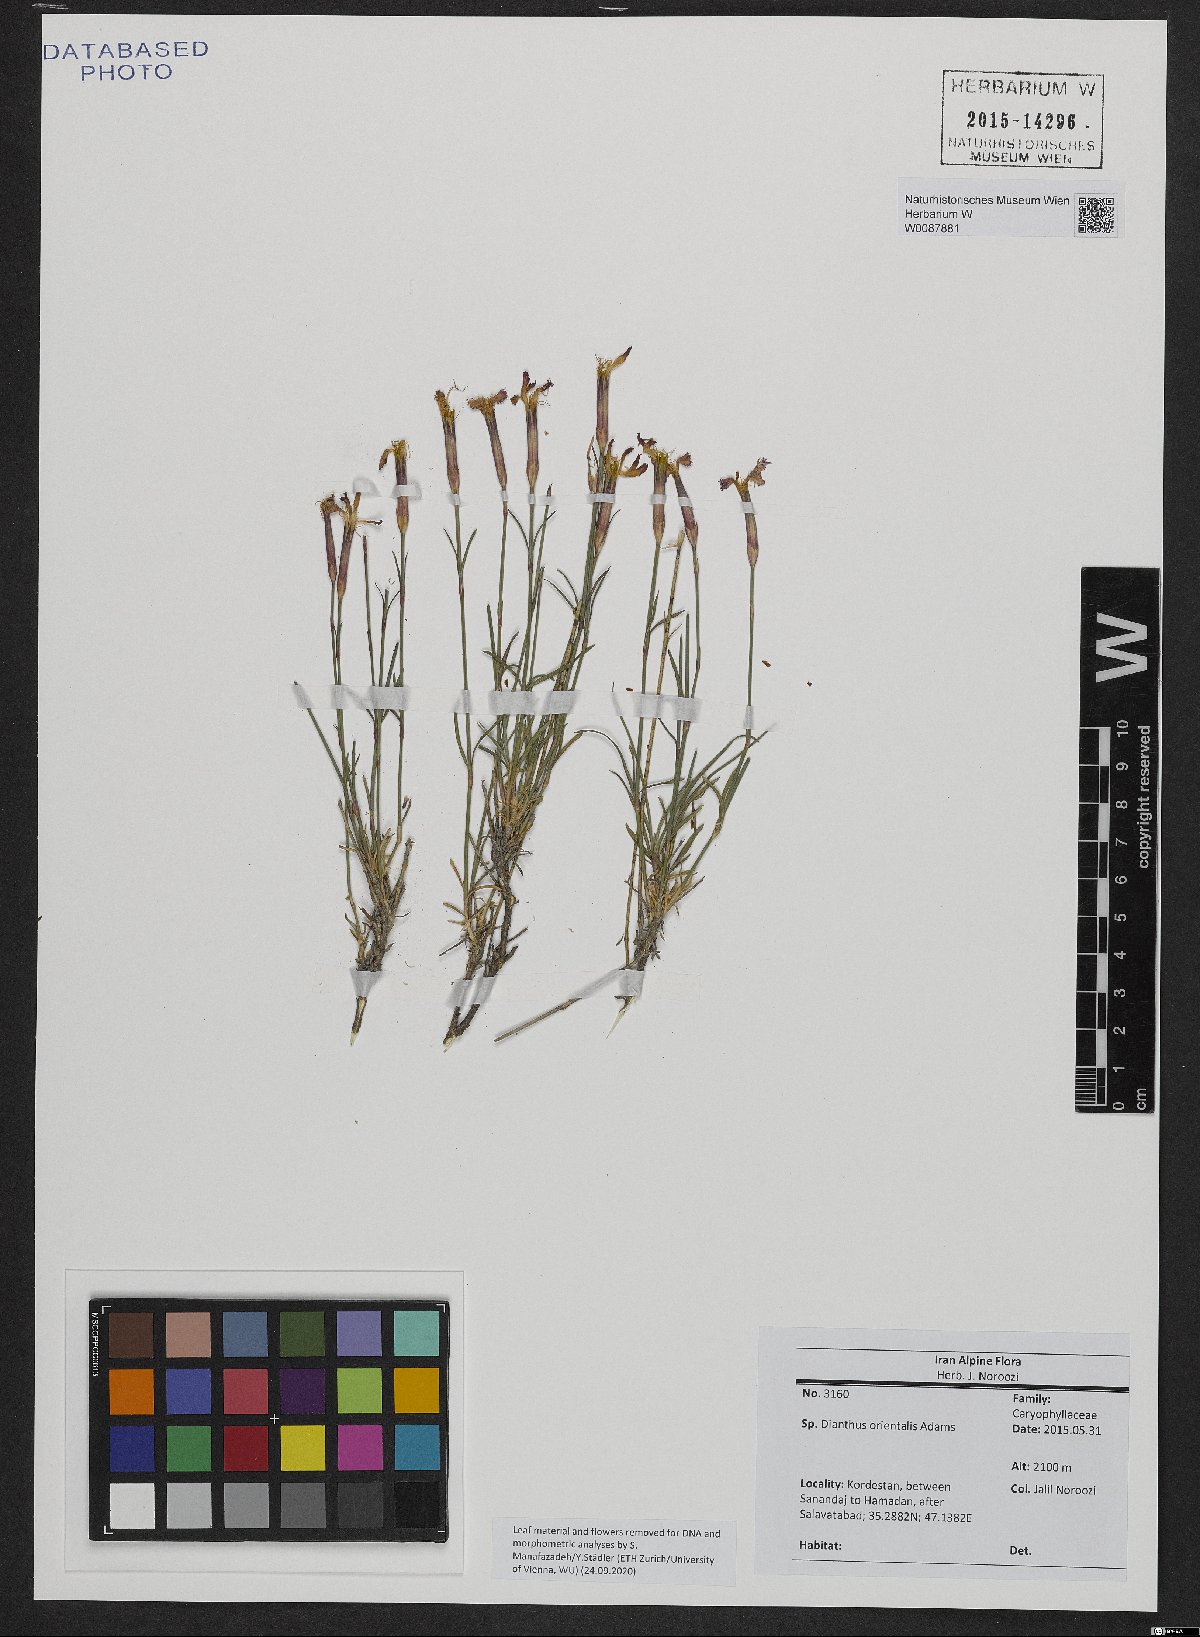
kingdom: Plantae
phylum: Tracheophyta
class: Magnoliopsida
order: Caryophyllales
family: Caryophyllaceae
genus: Dianthus
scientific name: Dianthus orientalis
